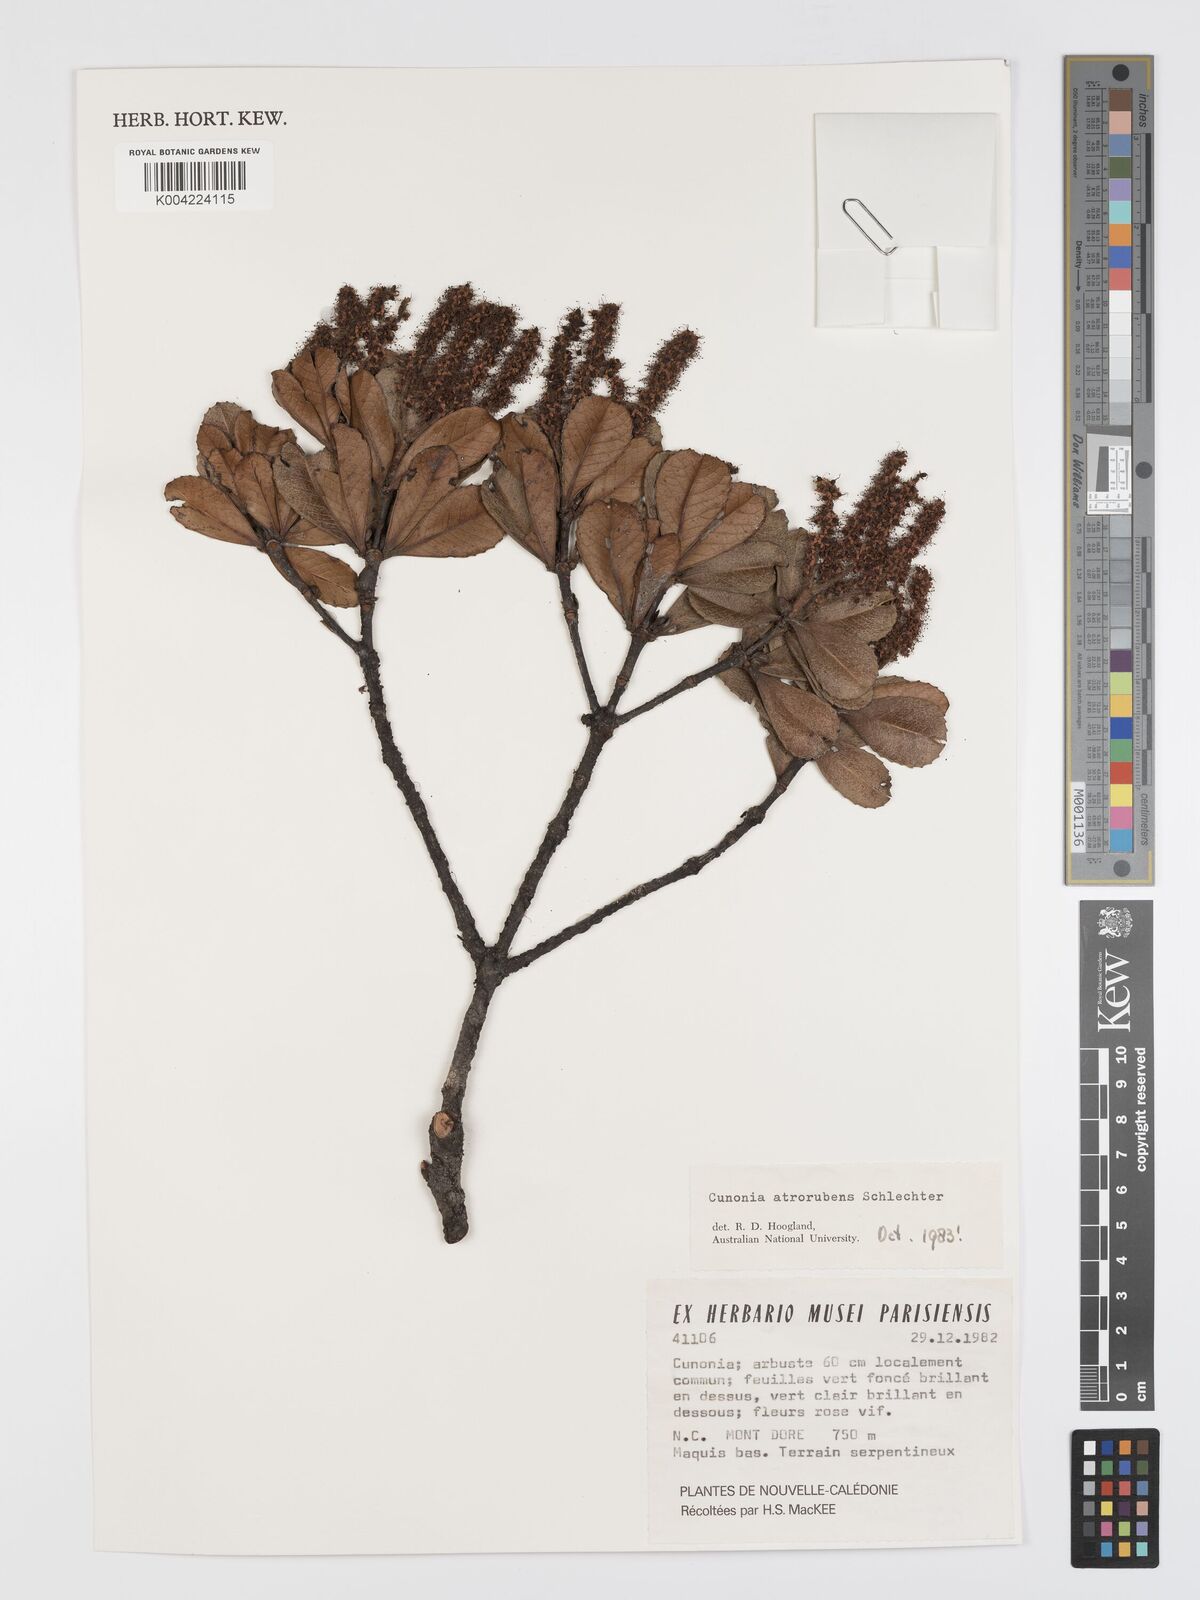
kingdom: Plantae
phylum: Tracheophyta
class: Magnoliopsida
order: Oxalidales
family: Cunoniaceae
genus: Cunonia
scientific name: Cunonia atrorubens
